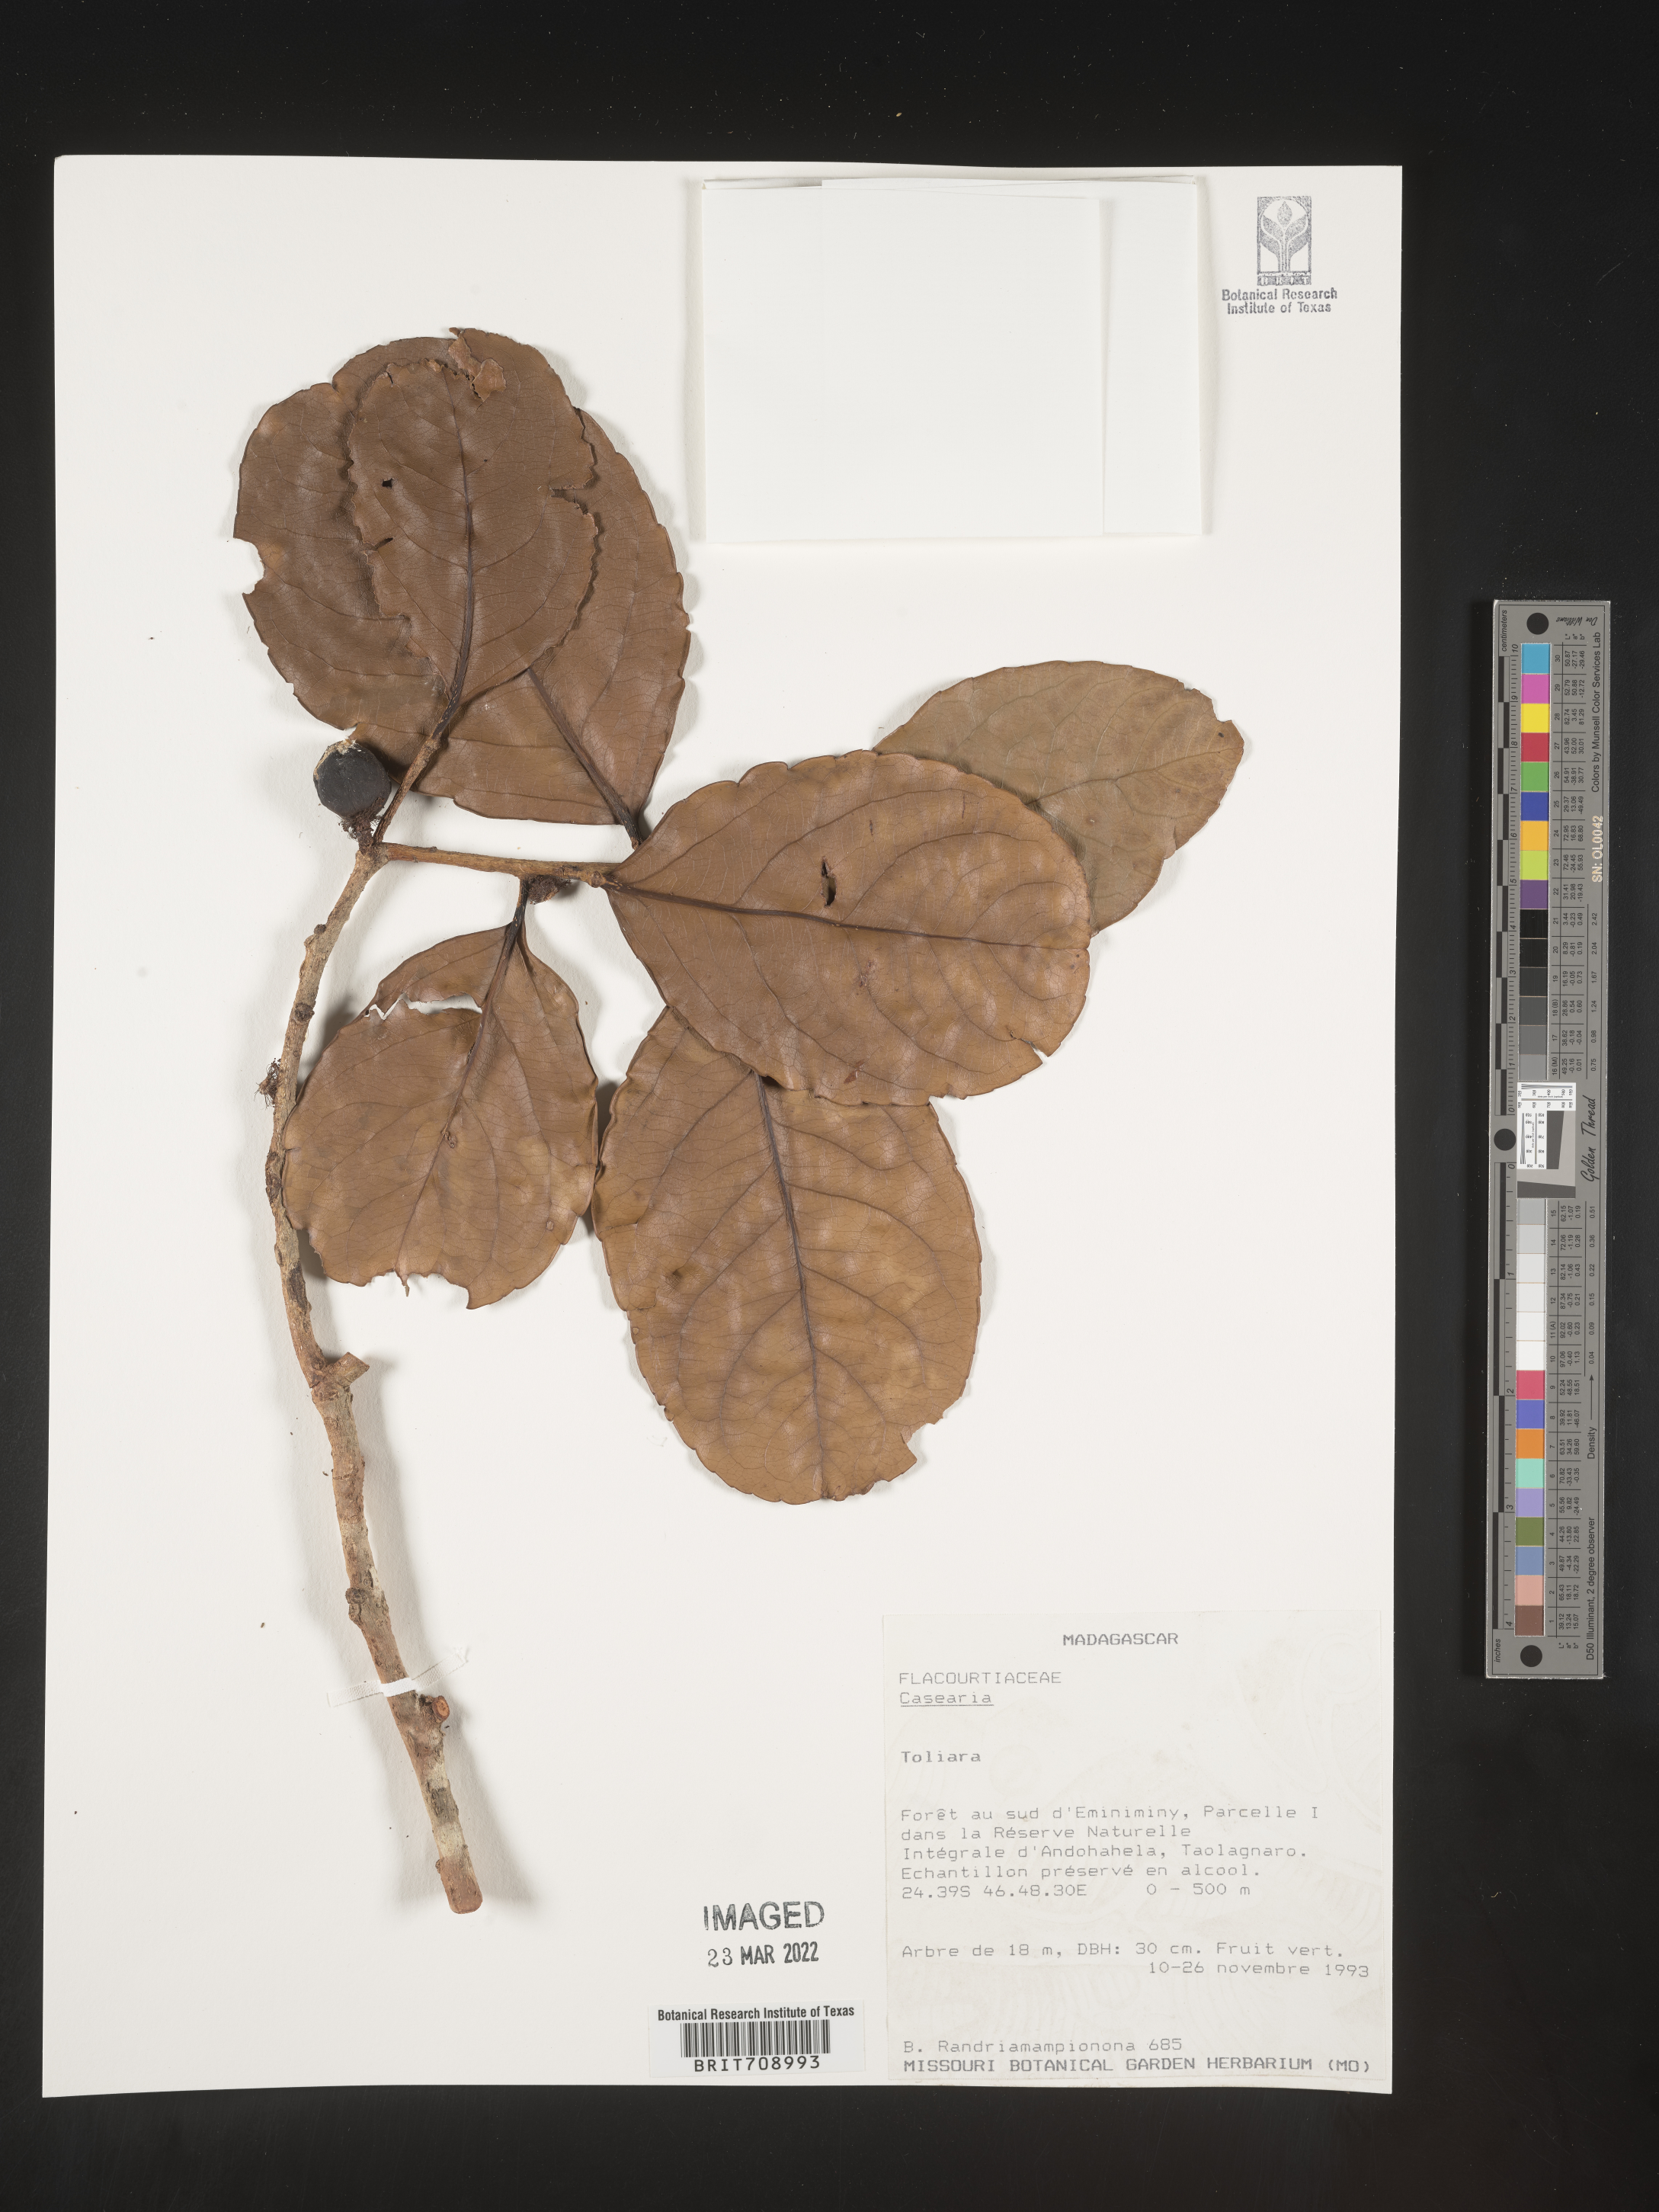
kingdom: Plantae
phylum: Tracheophyta
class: Magnoliopsida
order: Malpighiales
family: Salicaceae
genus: Casearia
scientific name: Casearia
